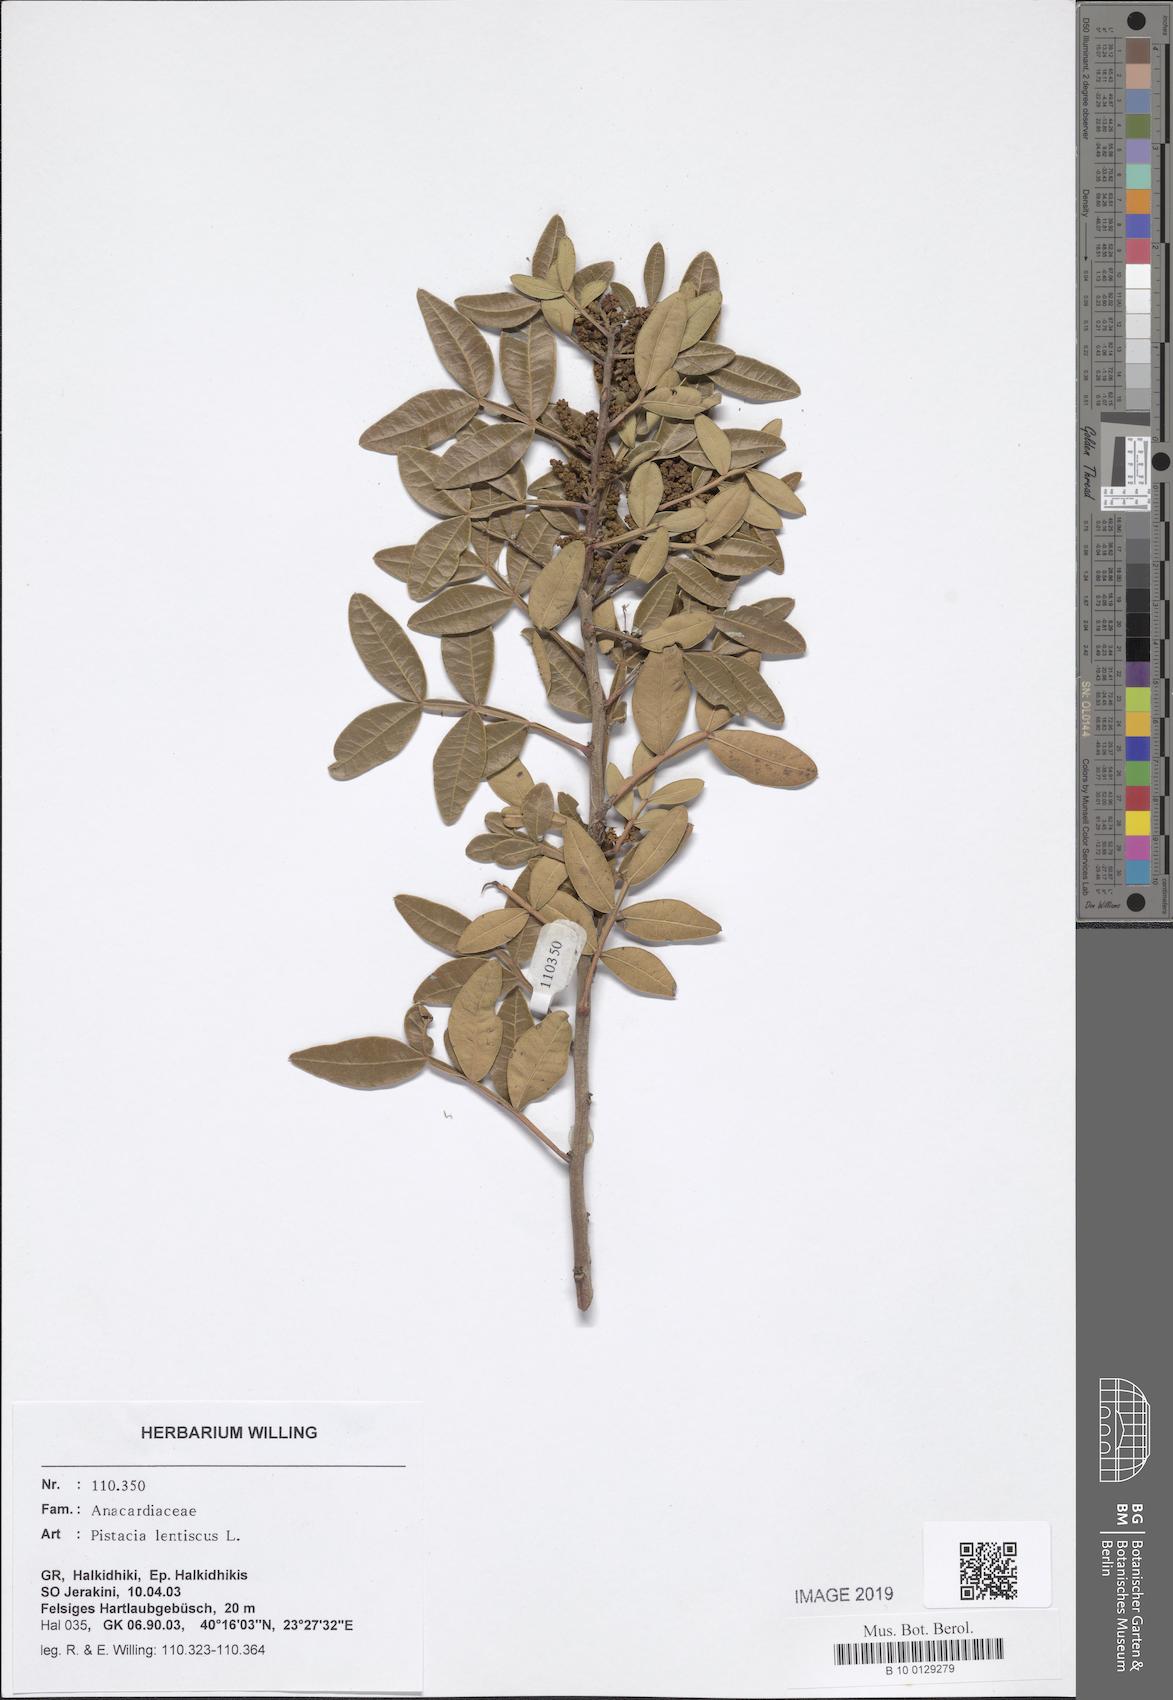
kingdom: Plantae
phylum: Tracheophyta
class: Magnoliopsida
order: Sapindales
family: Anacardiaceae
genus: Pistacia
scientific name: Pistacia lentiscus
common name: Lentisk
